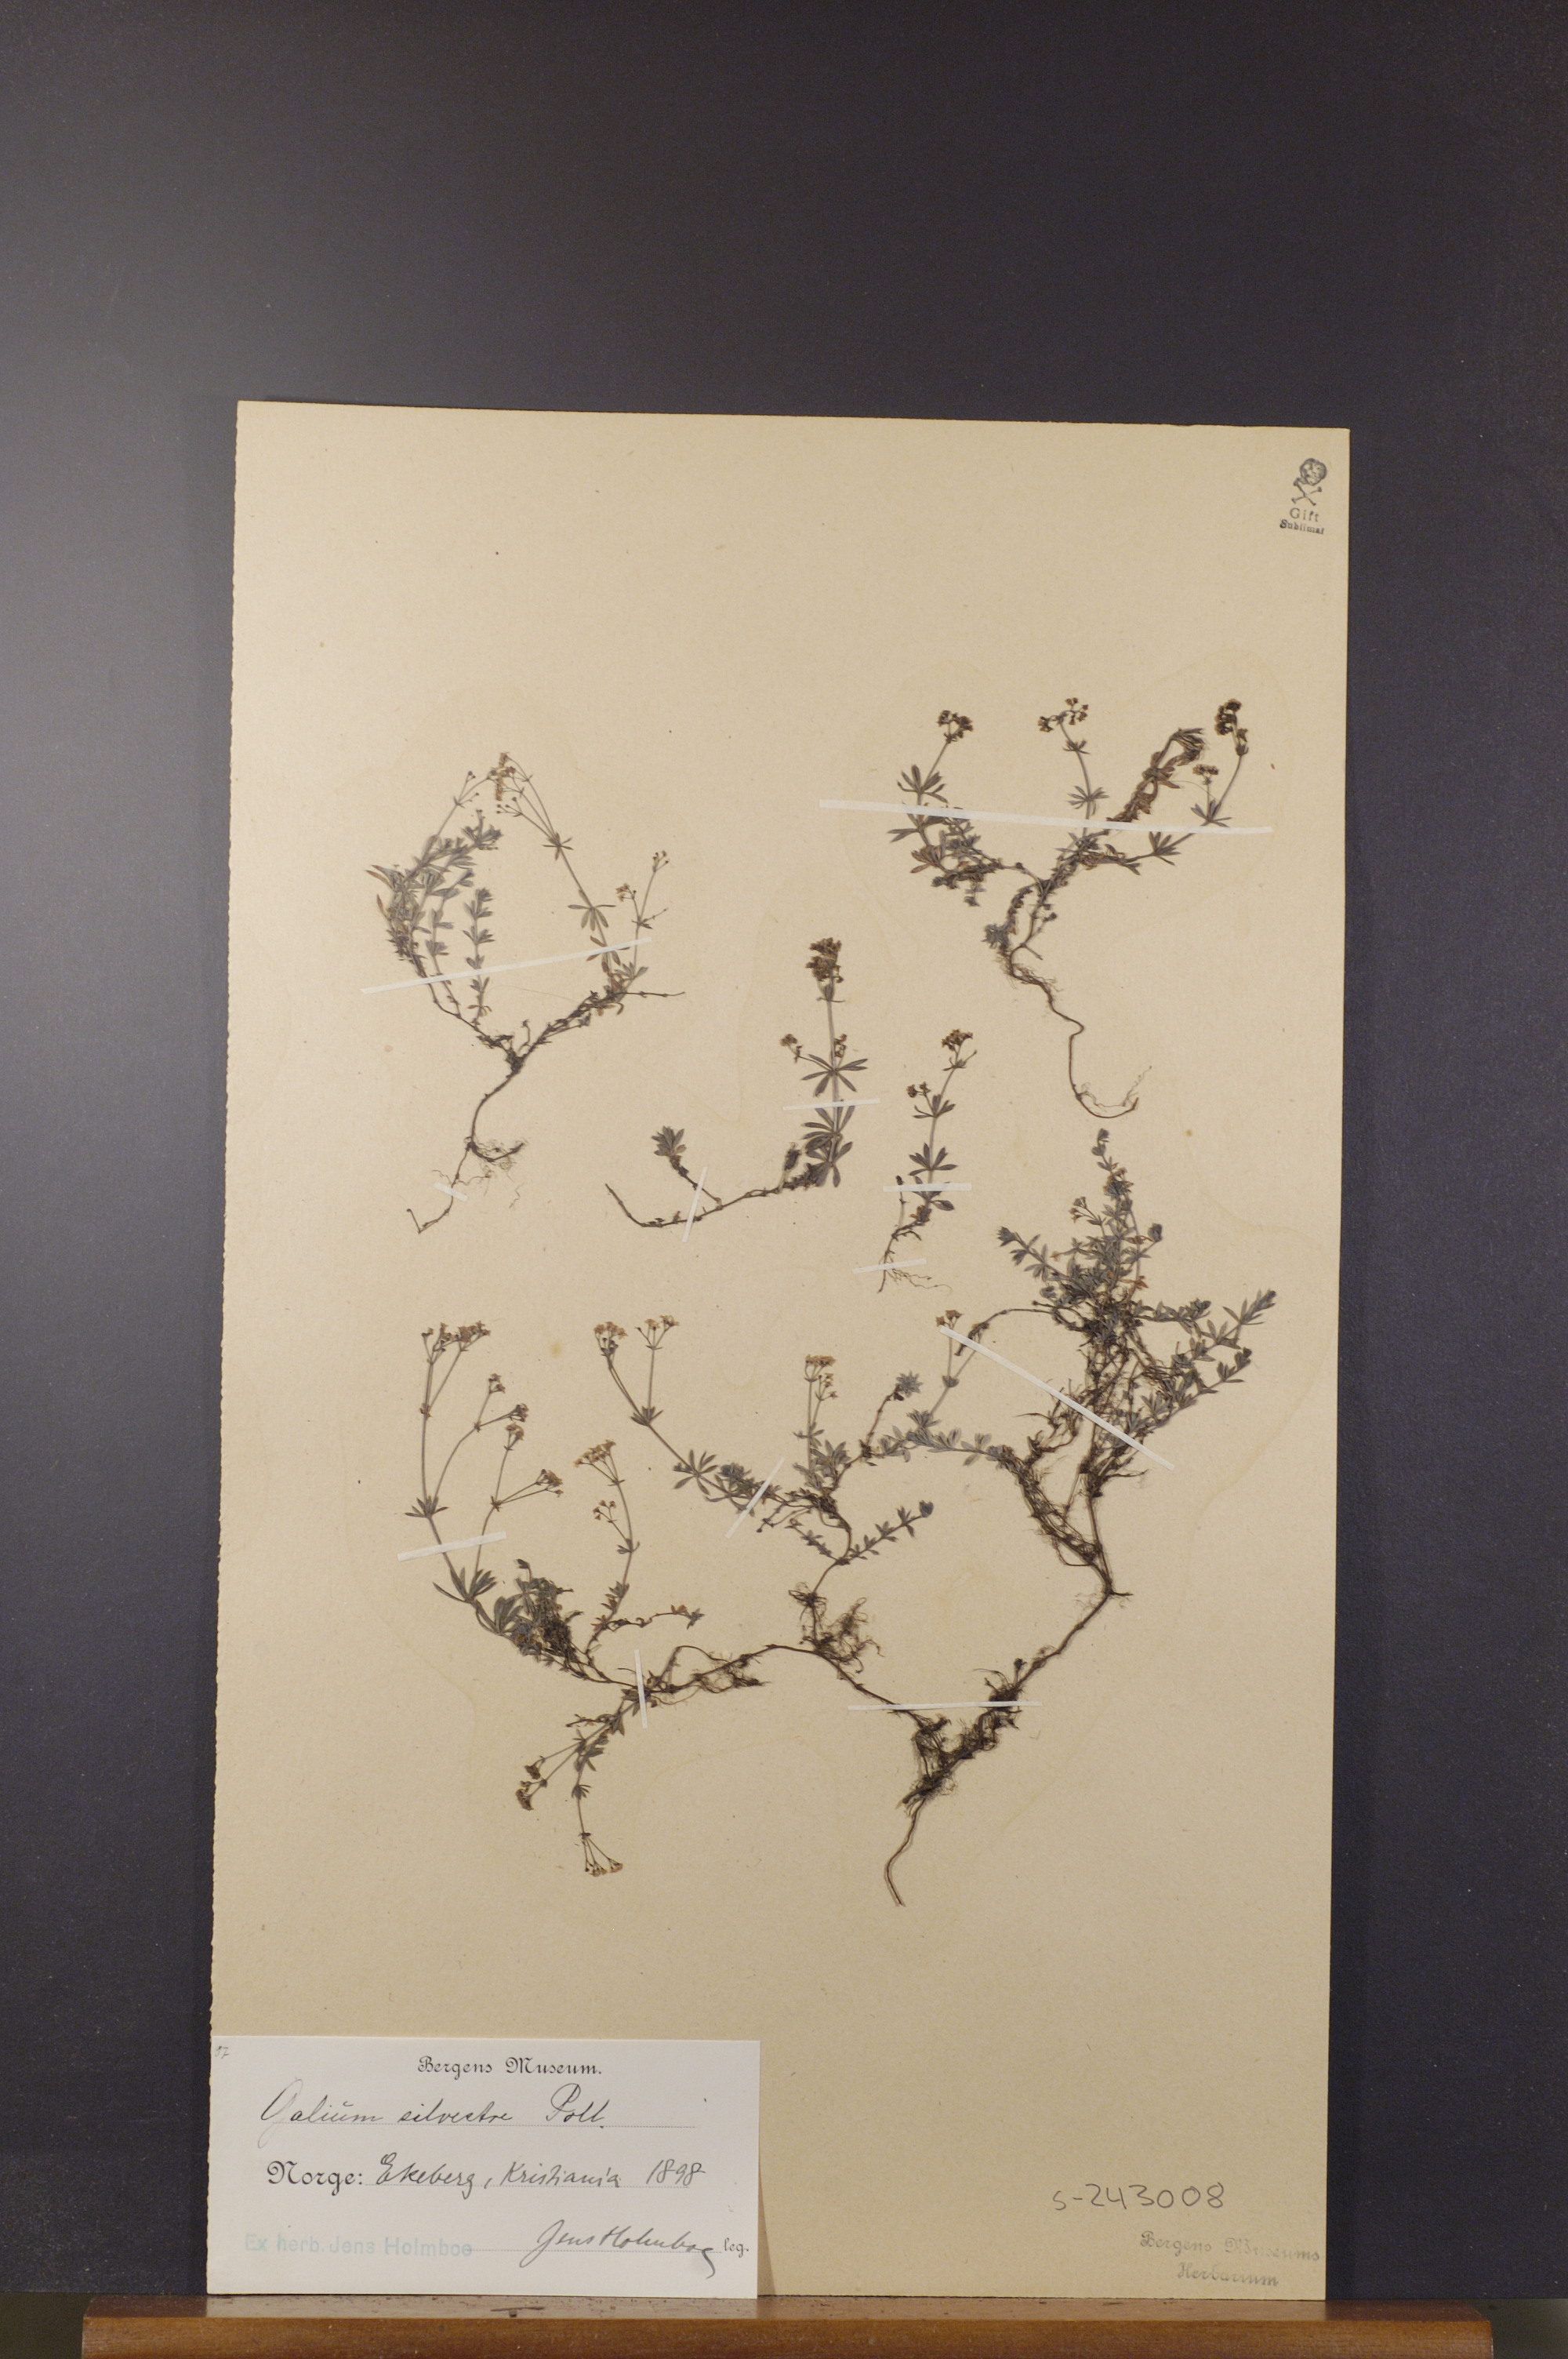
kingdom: Plantae
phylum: Tracheophyta
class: Magnoliopsida
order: Gentianales
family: Rubiaceae
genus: Galium
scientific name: Galium pumilum
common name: Slender bedstraw
